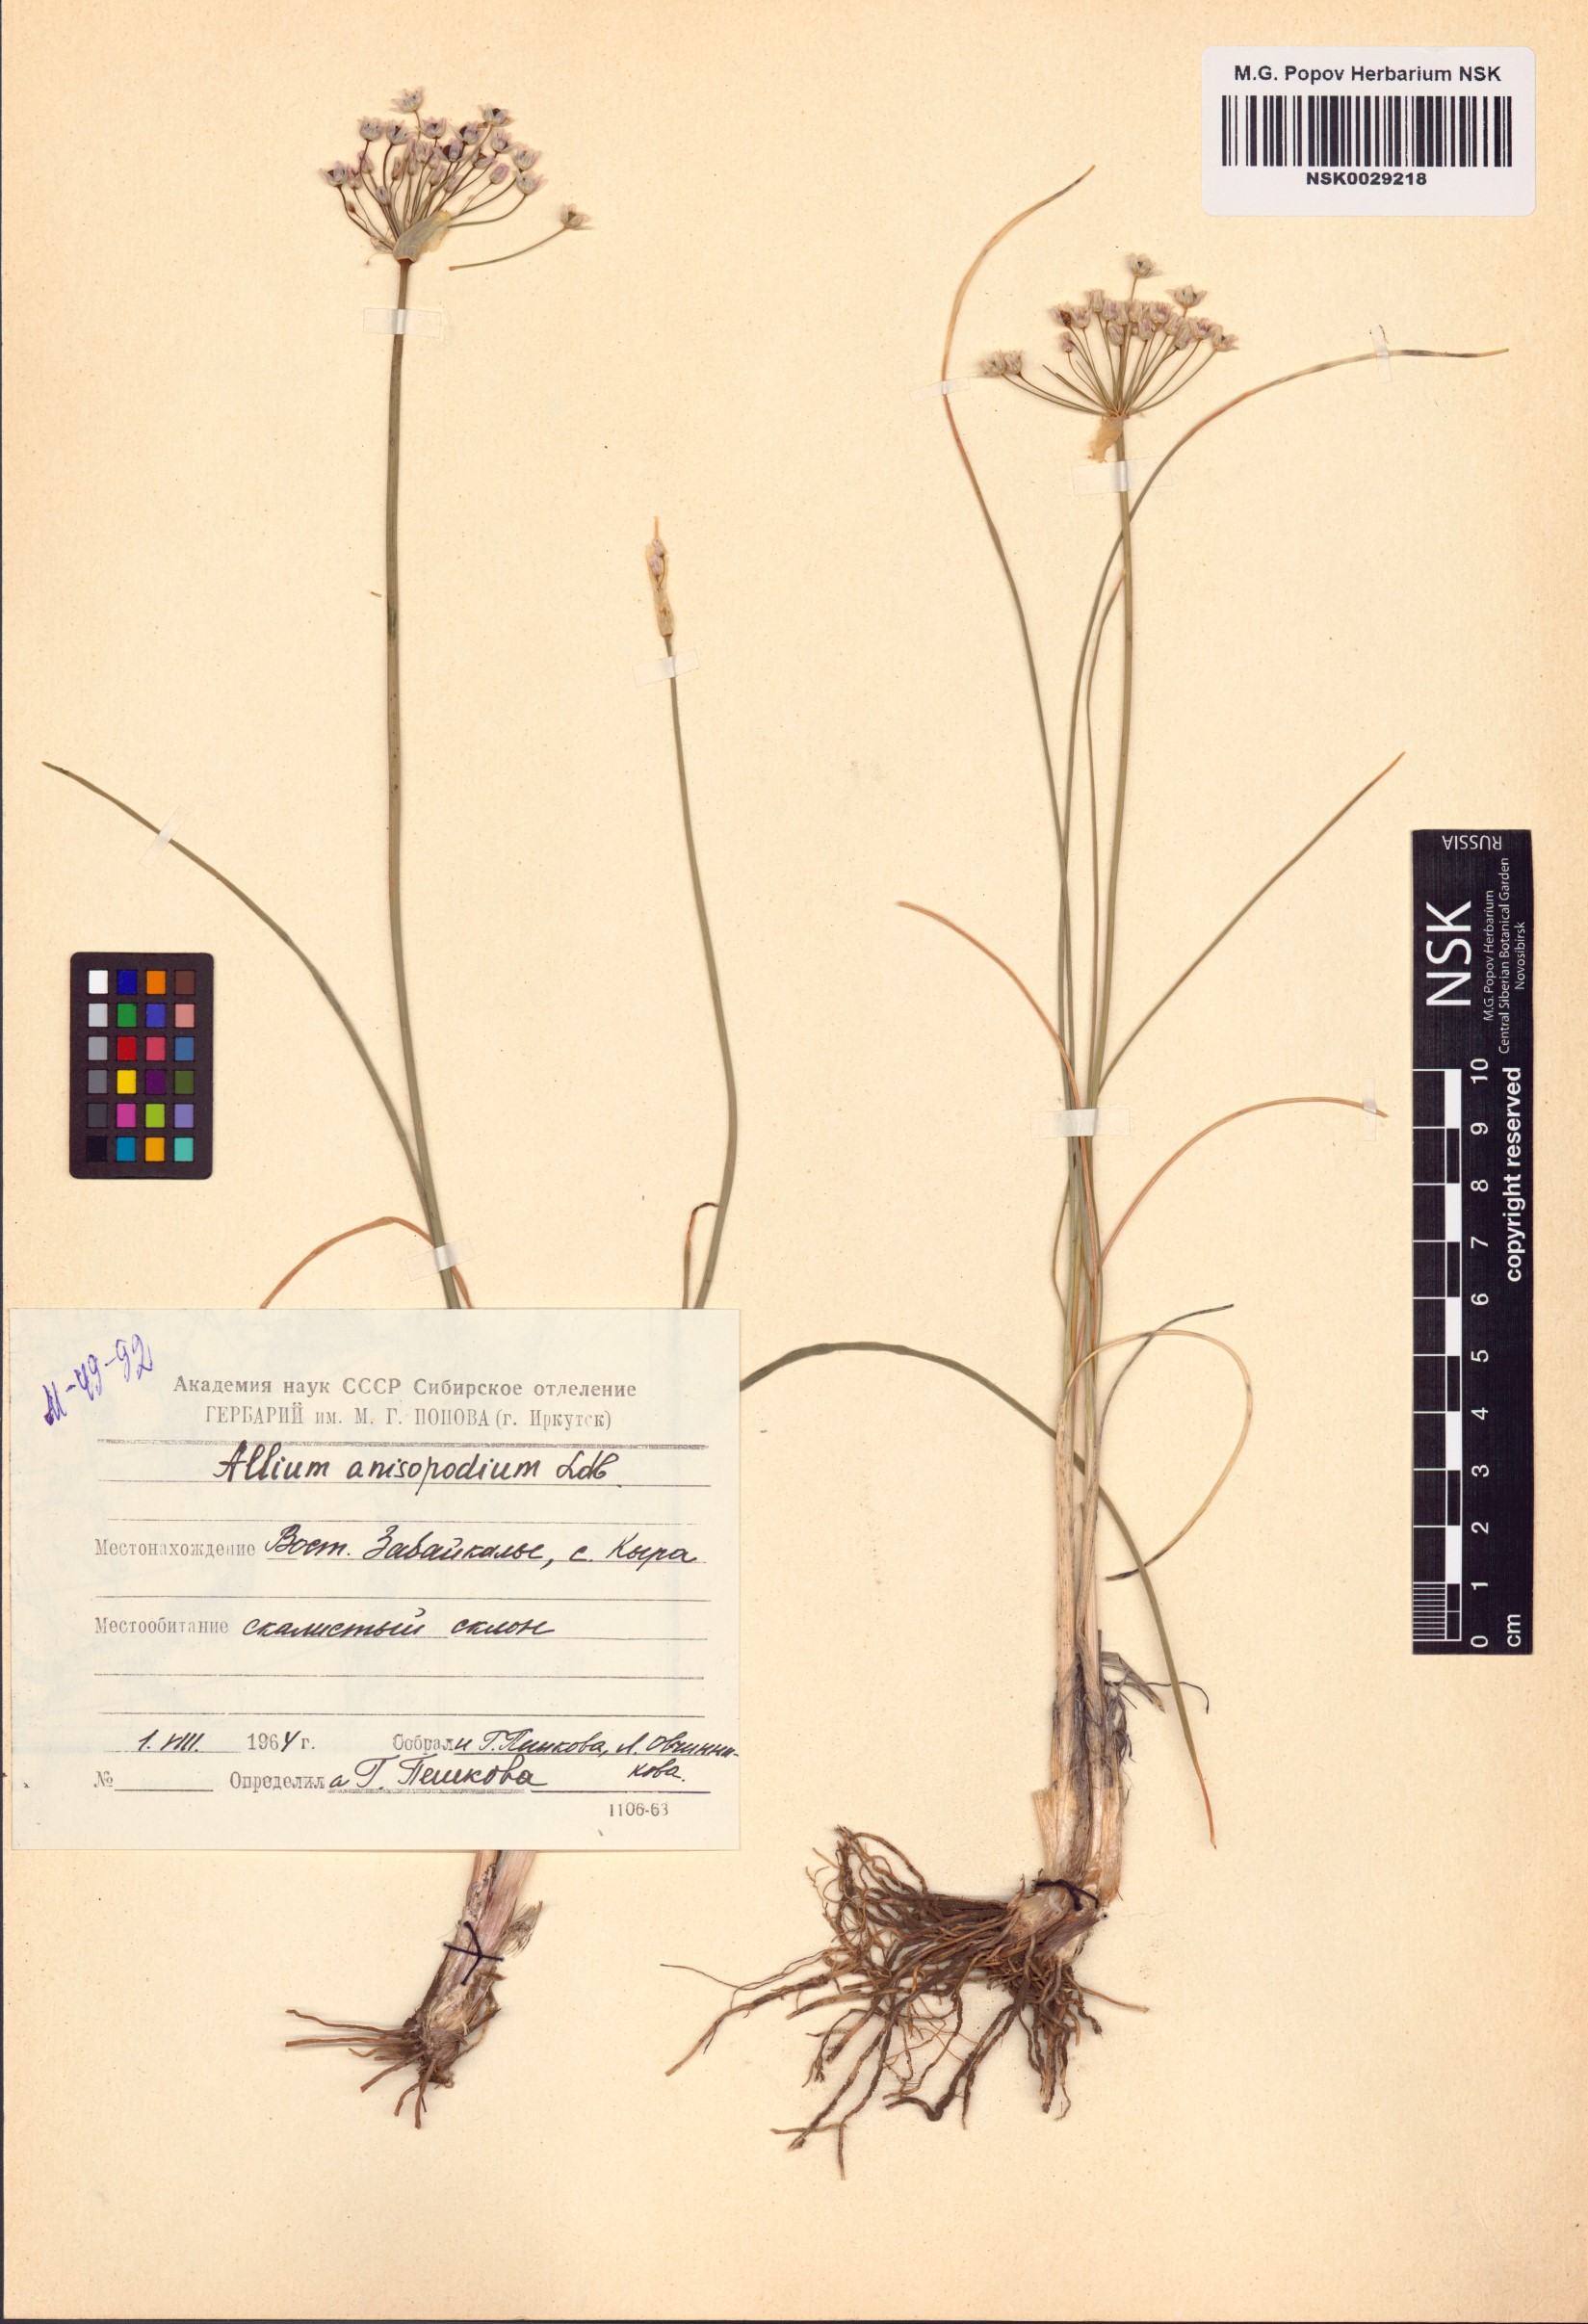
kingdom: Plantae
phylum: Tracheophyta
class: Liliopsida
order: Asparagales
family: Amaryllidaceae
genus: Allium
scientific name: Allium anisopodium
